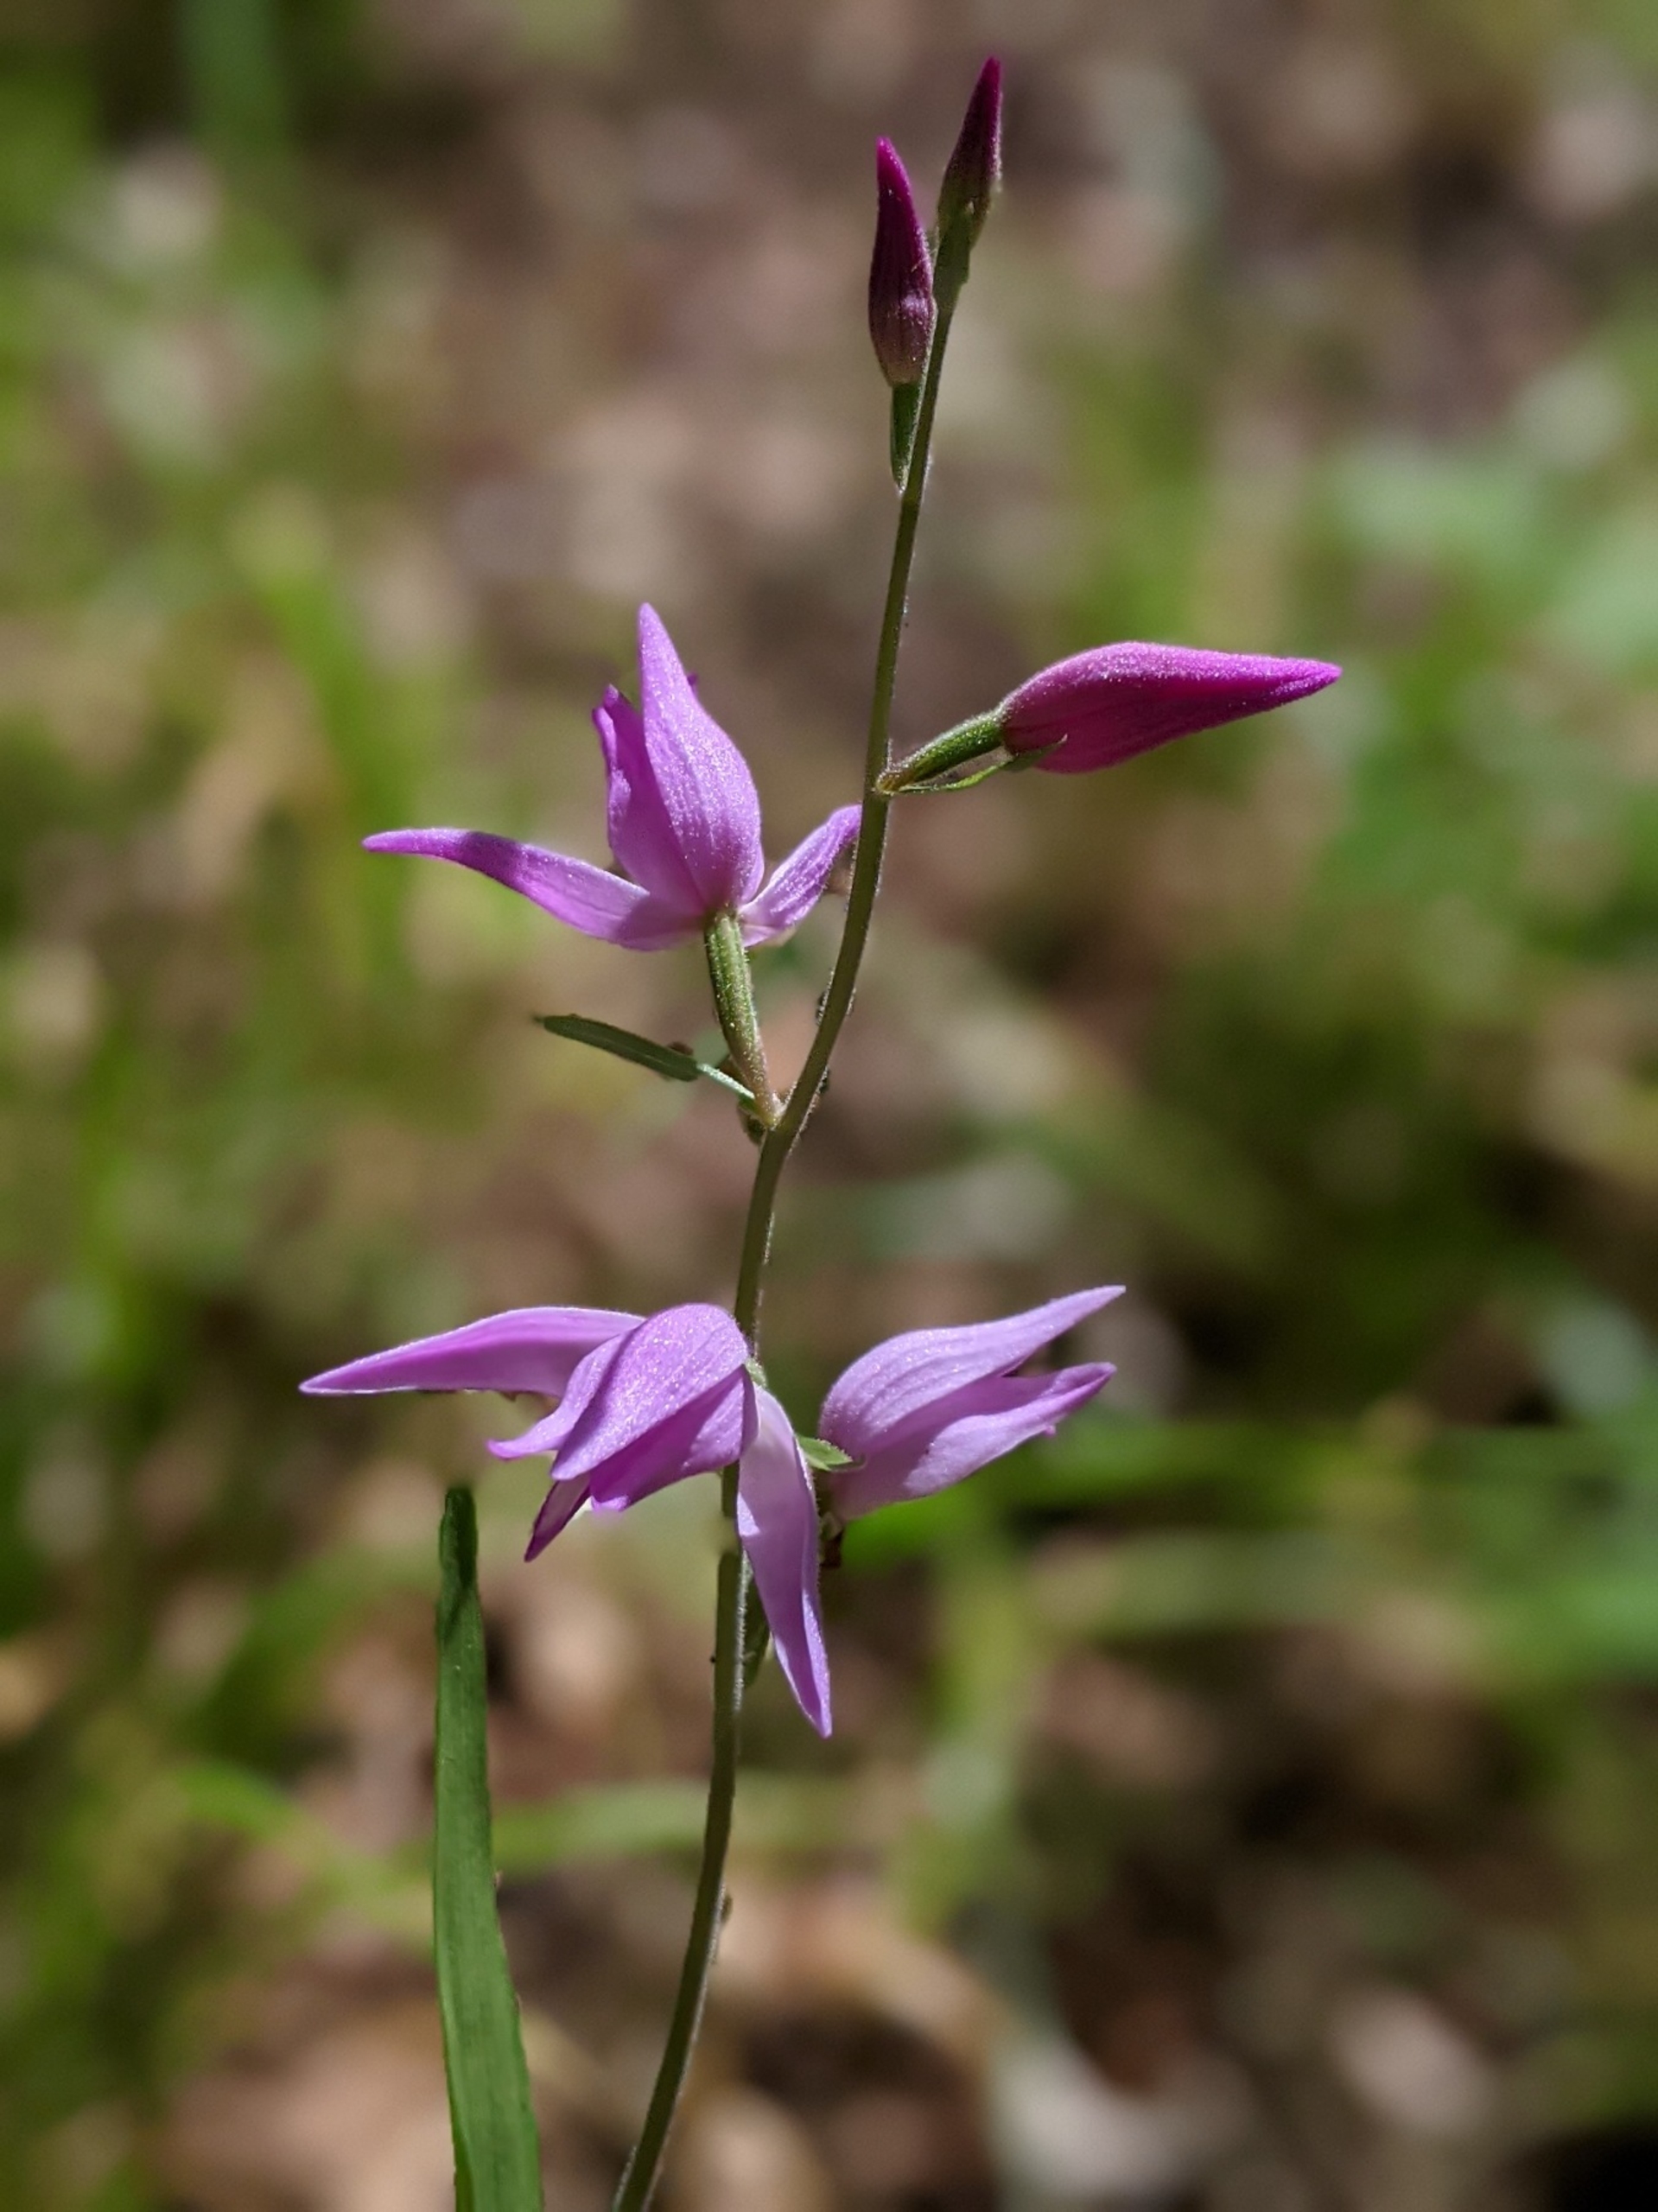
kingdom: Plantae
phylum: Tracheophyta
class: Liliopsida
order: Asparagales
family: Orchidaceae
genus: Cephalanthera
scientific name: Cephalanthera rubra
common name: Rød skovlilje
